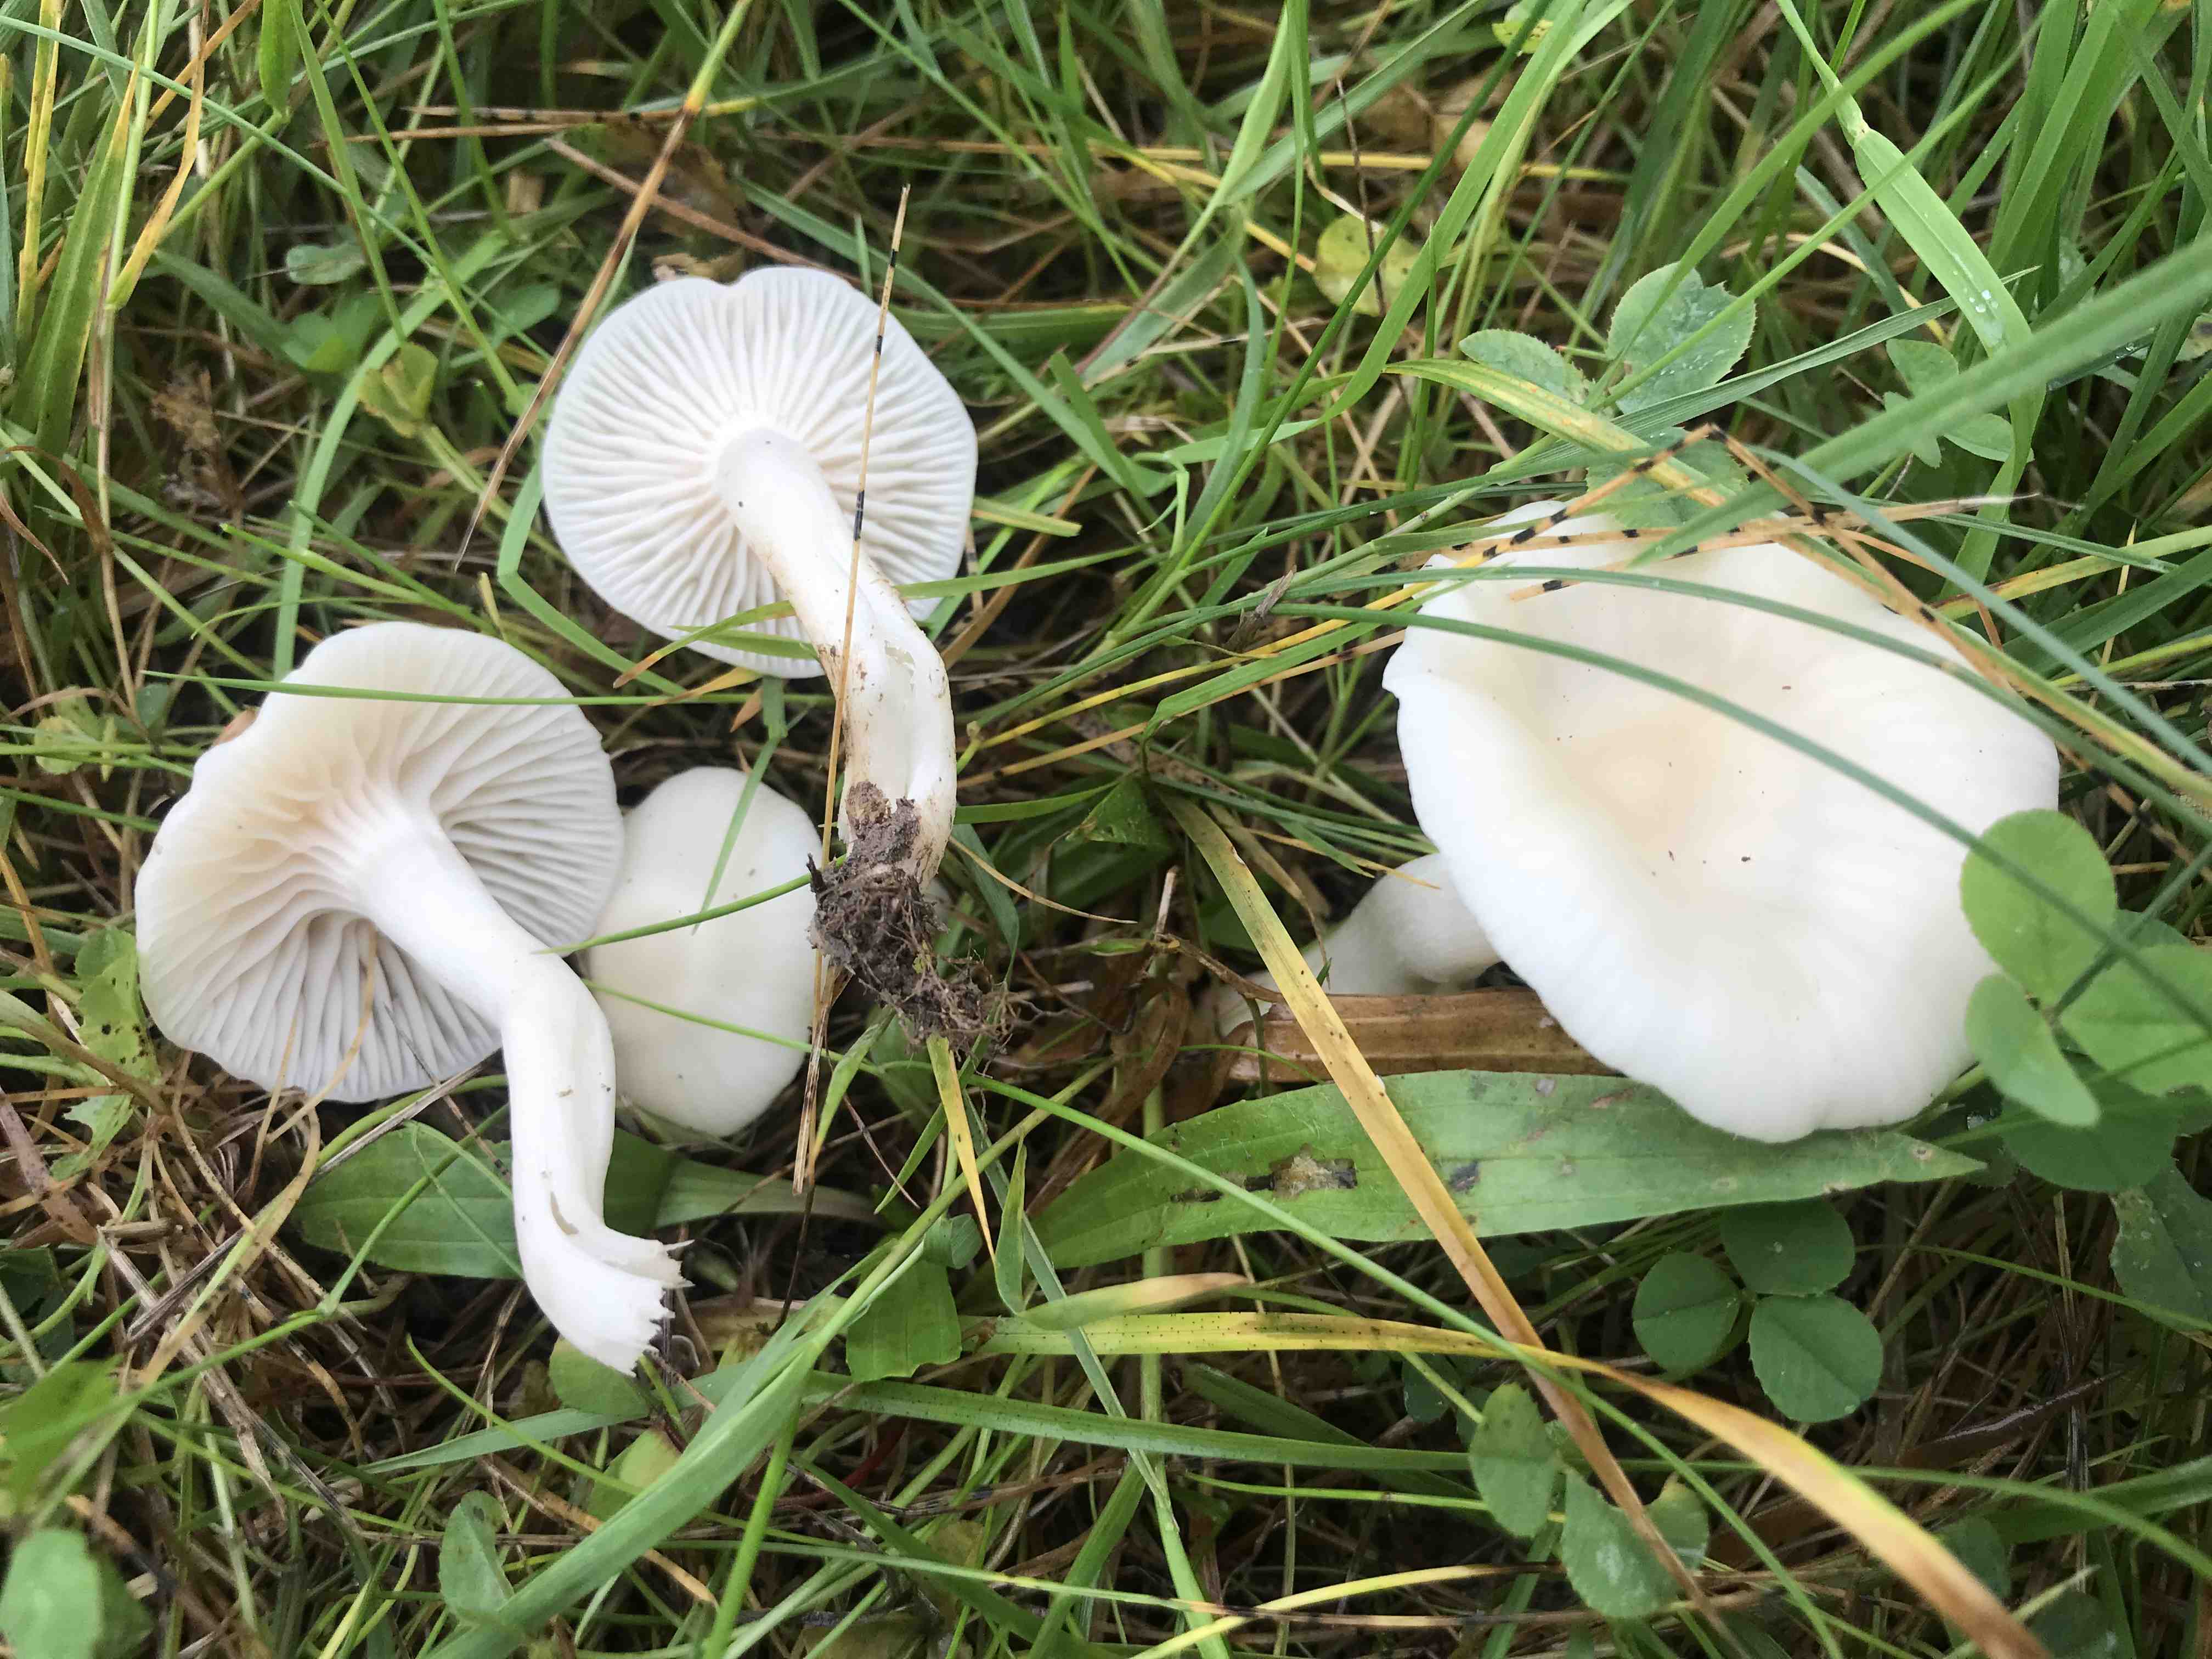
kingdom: Fungi
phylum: Basidiomycota
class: Agaricomycetes
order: Agaricales
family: Hygrophoraceae
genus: Cuphophyllus
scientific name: Cuphophyllus
